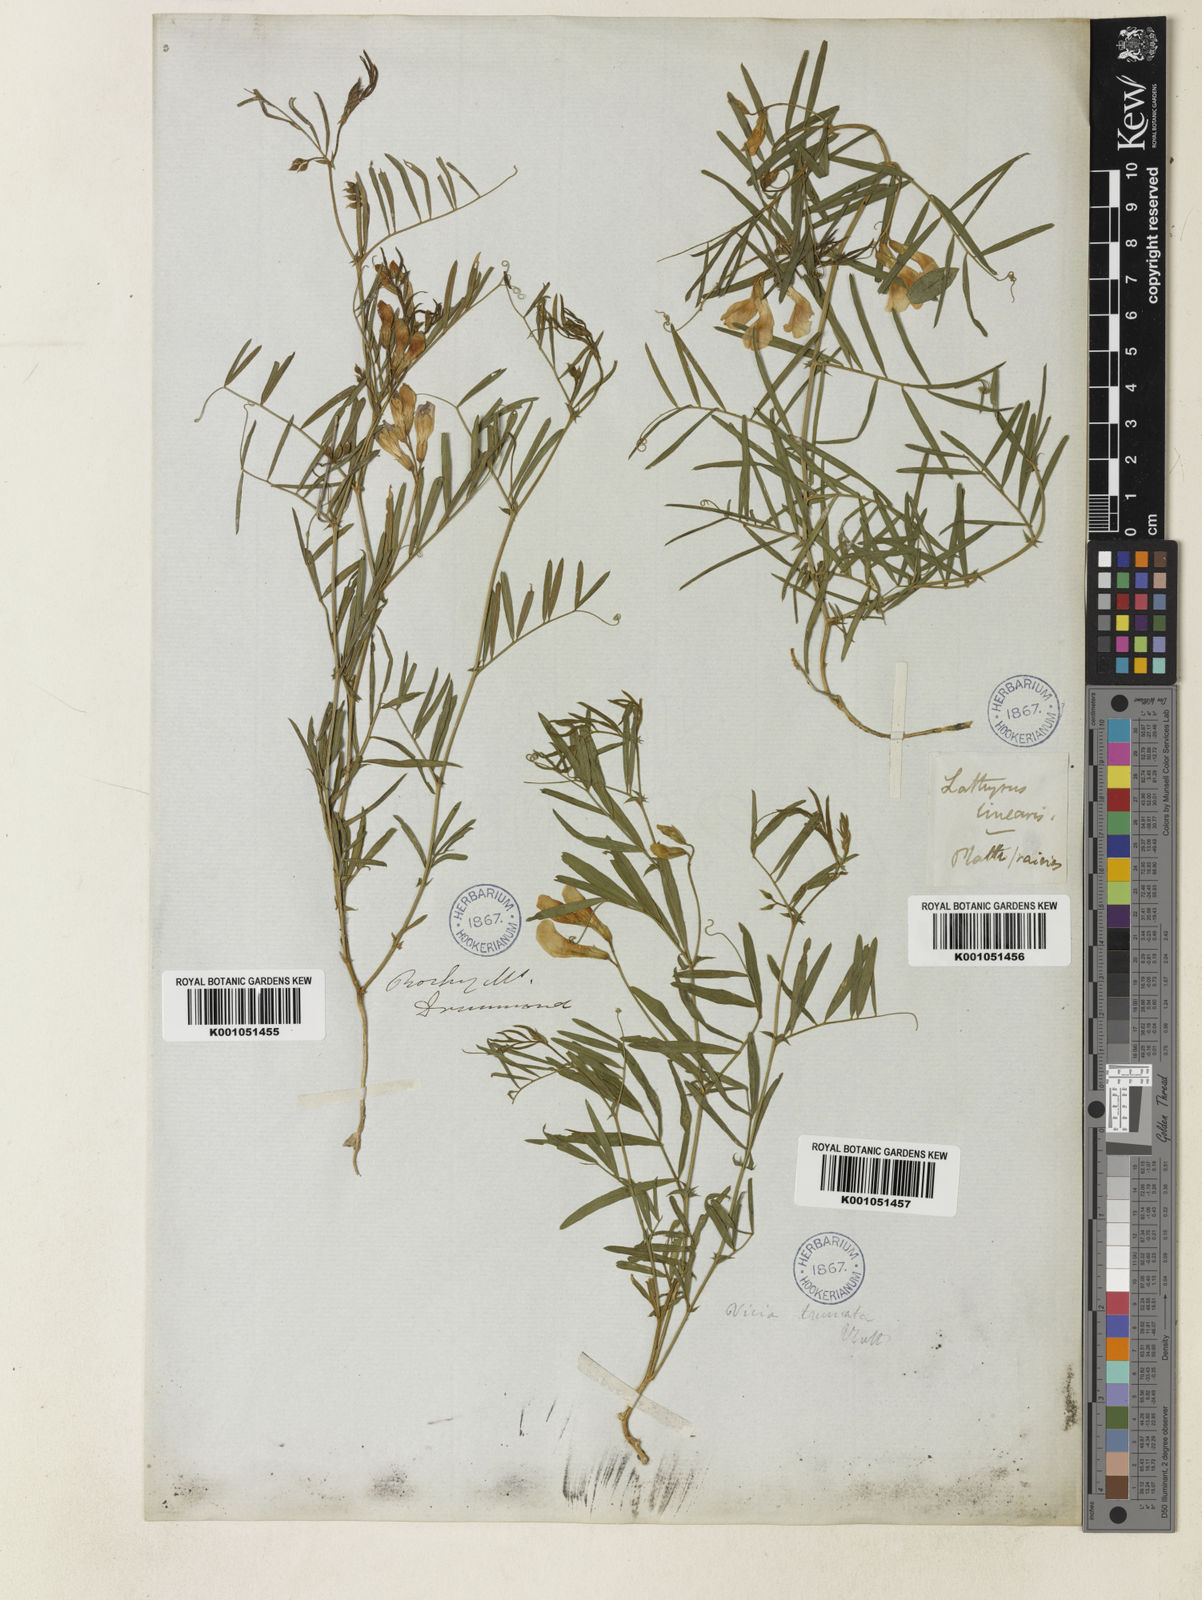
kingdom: Plantae
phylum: Tracheophyta
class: Magnoliopsida
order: Fabales
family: Fabaceae
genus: Vicia
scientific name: Vicia americana
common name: American vetch
